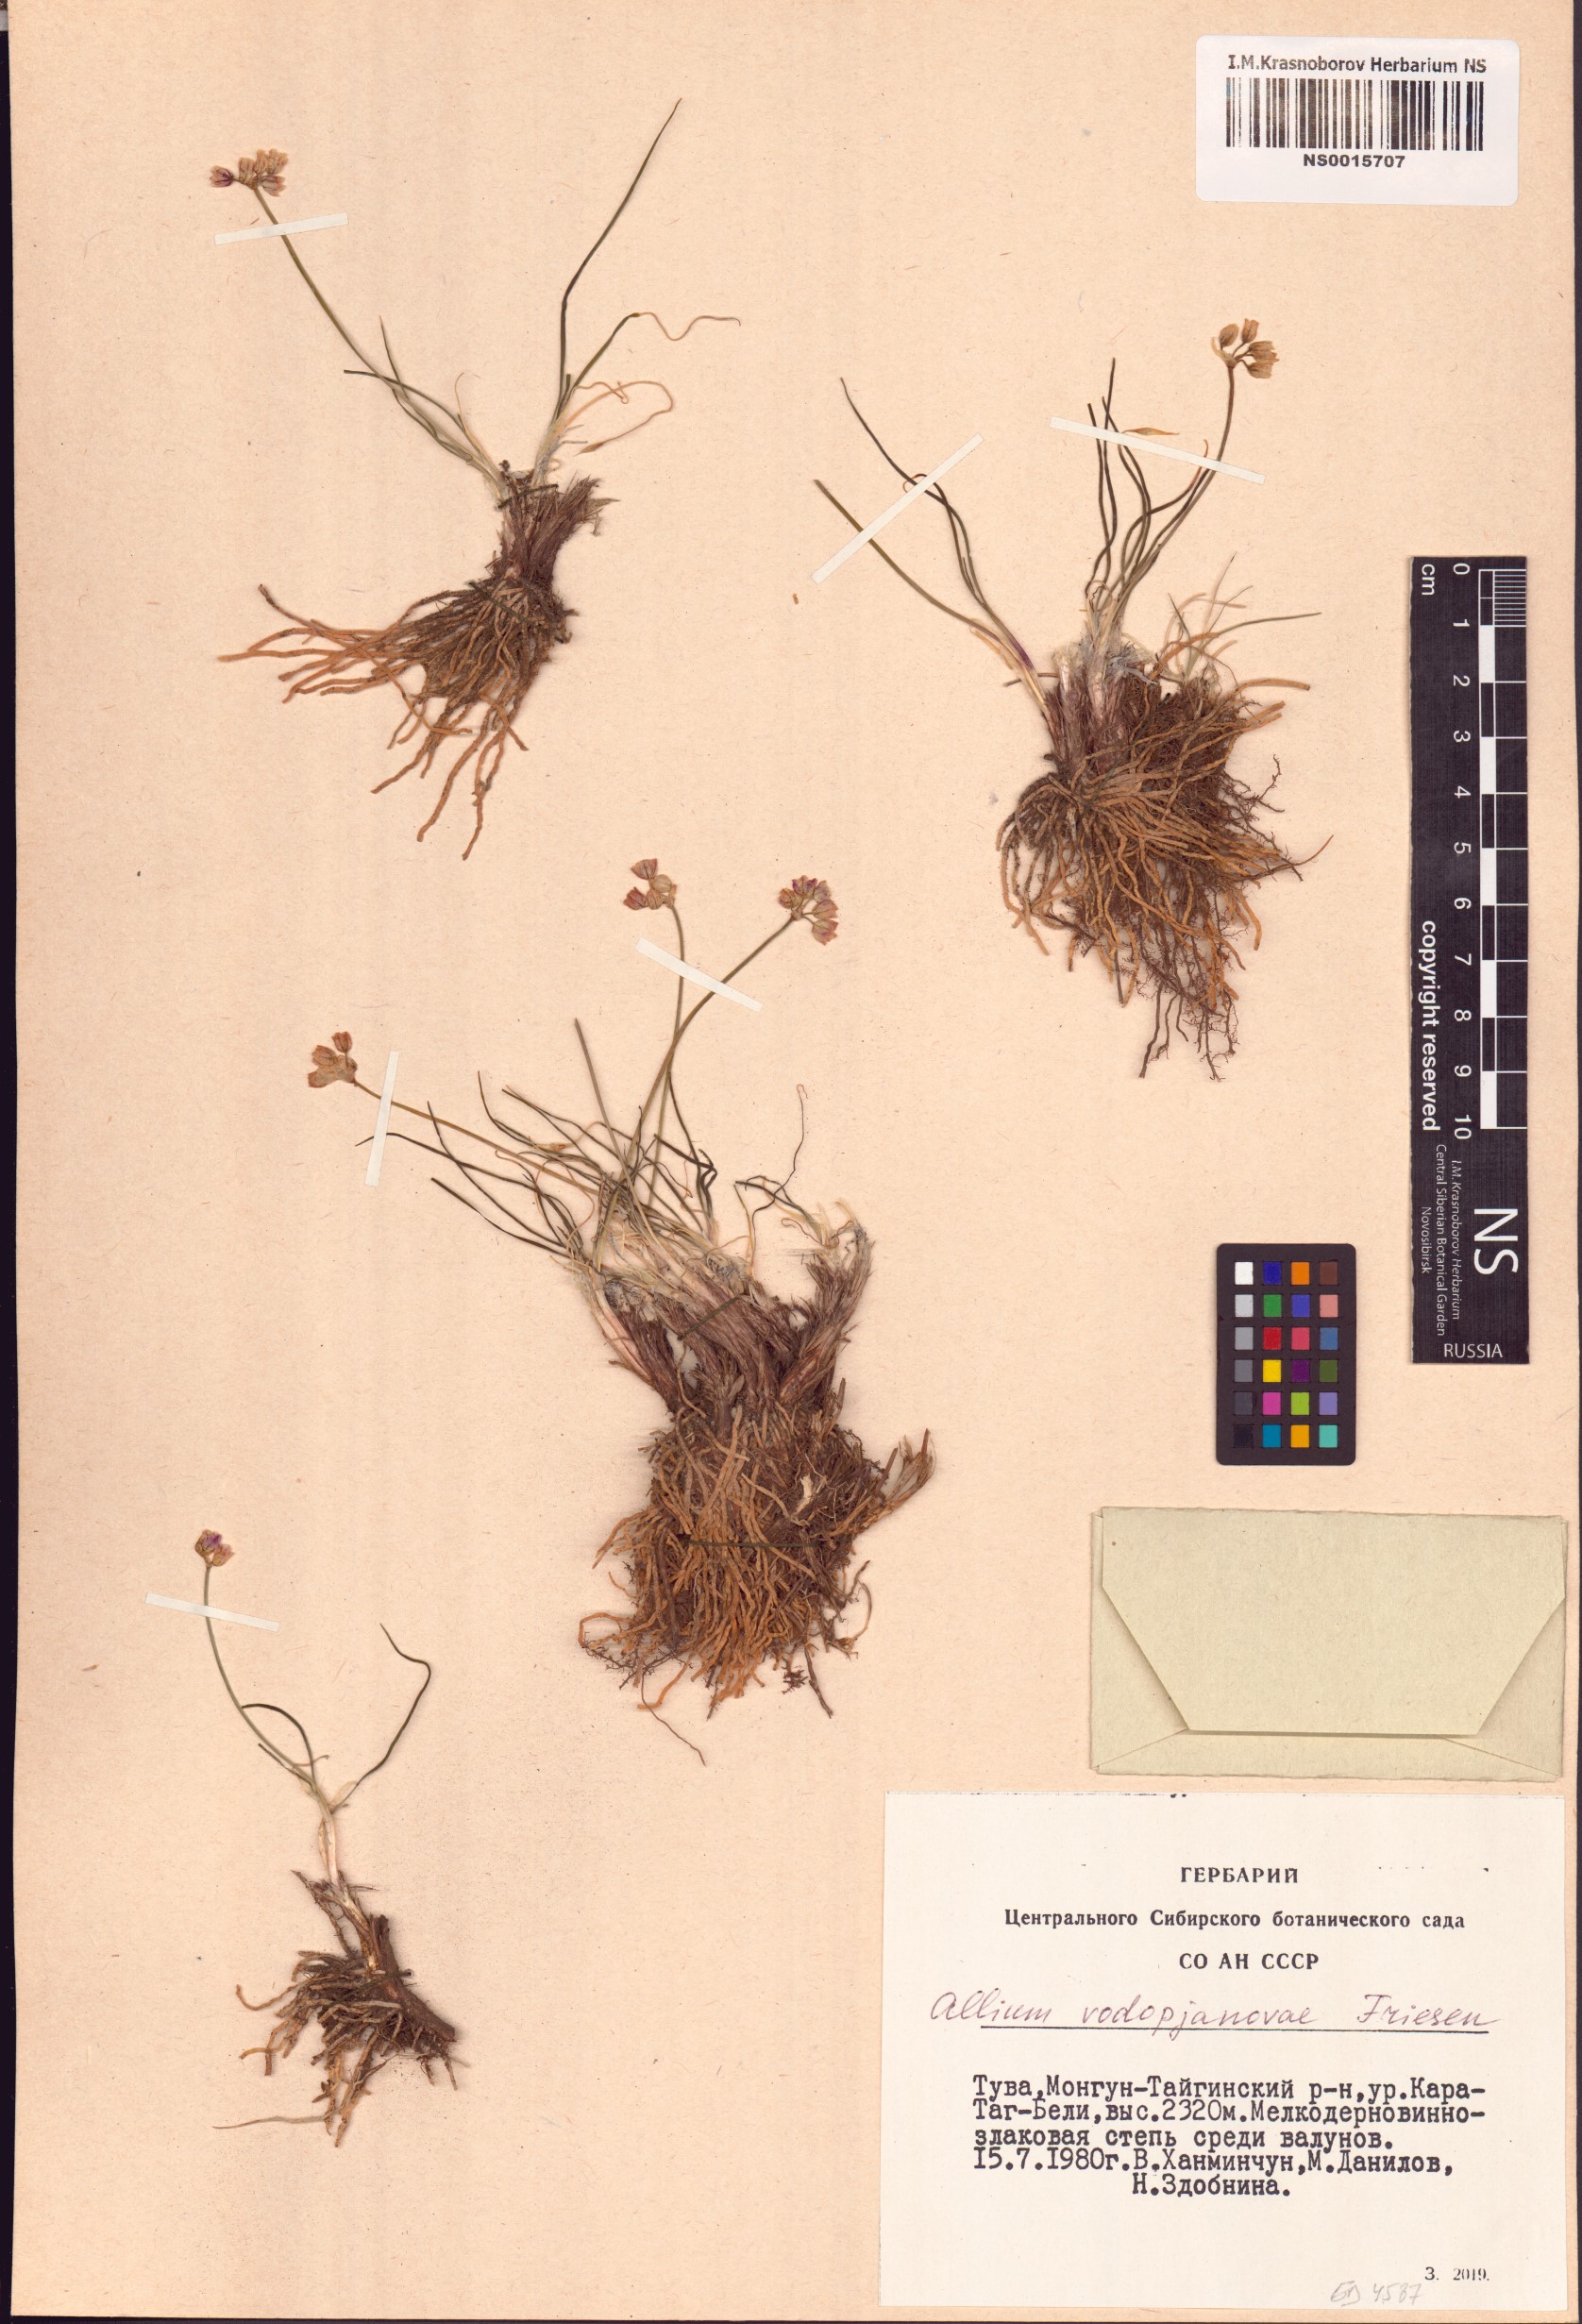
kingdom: Plantae
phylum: Tracheophyta
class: Liliopsida
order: Asparagales
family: Amaryllidaceae
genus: Allium
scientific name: Allium vodopjanovae
